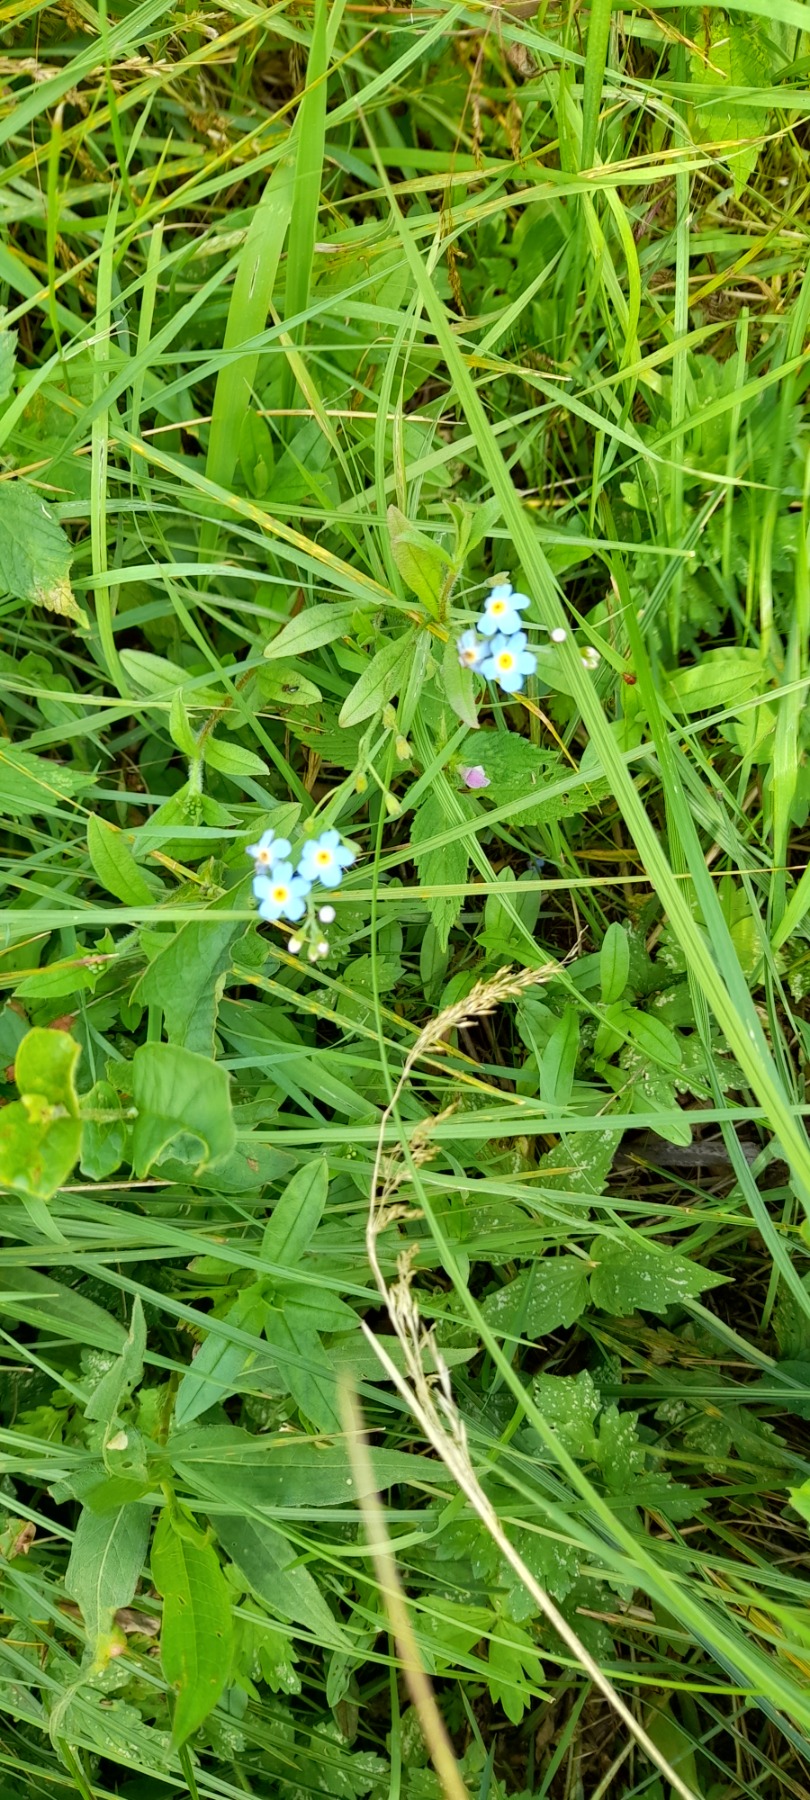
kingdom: Plantae
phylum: Tracheophyta
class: Magnoliopsida
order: Boraginales
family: Boraginaceae
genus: Myosotis
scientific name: Myosotis scorpioides
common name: Eng-forglemmigej
